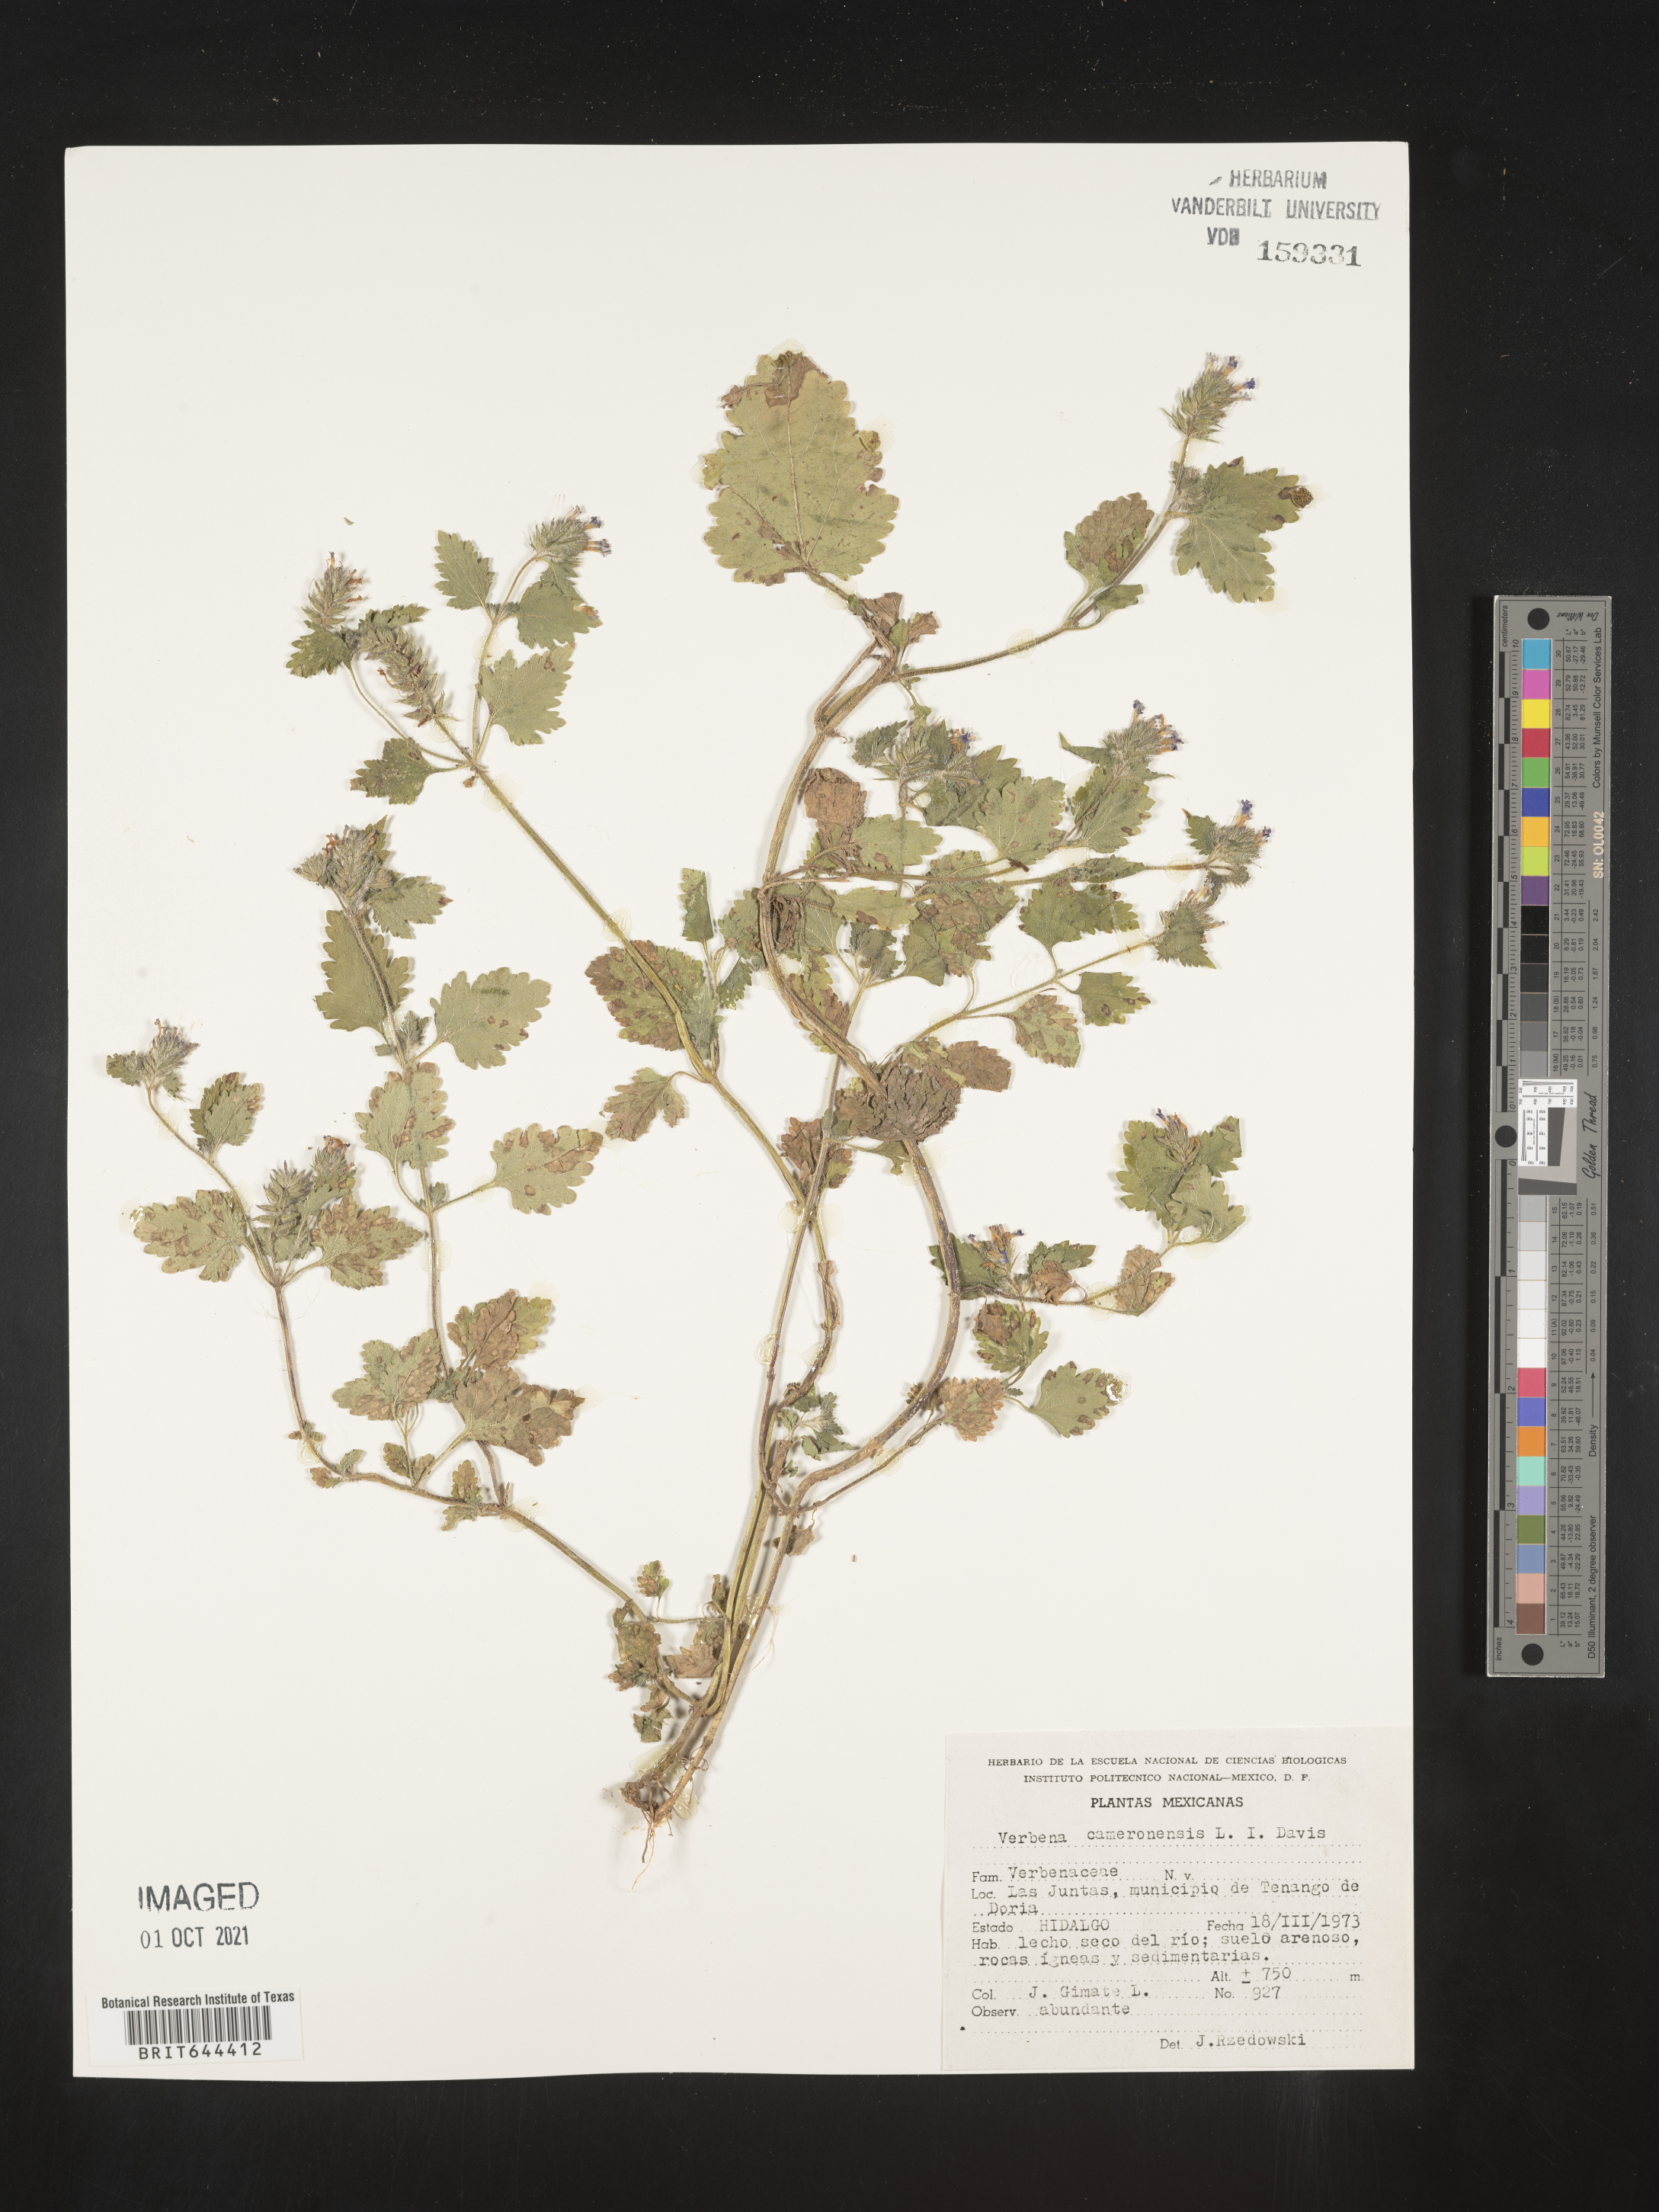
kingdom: Plantae
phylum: Tracheophyta
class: Magnoliopsida
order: Lamiales
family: Verbenaceae
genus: Verbena
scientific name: Verbena
